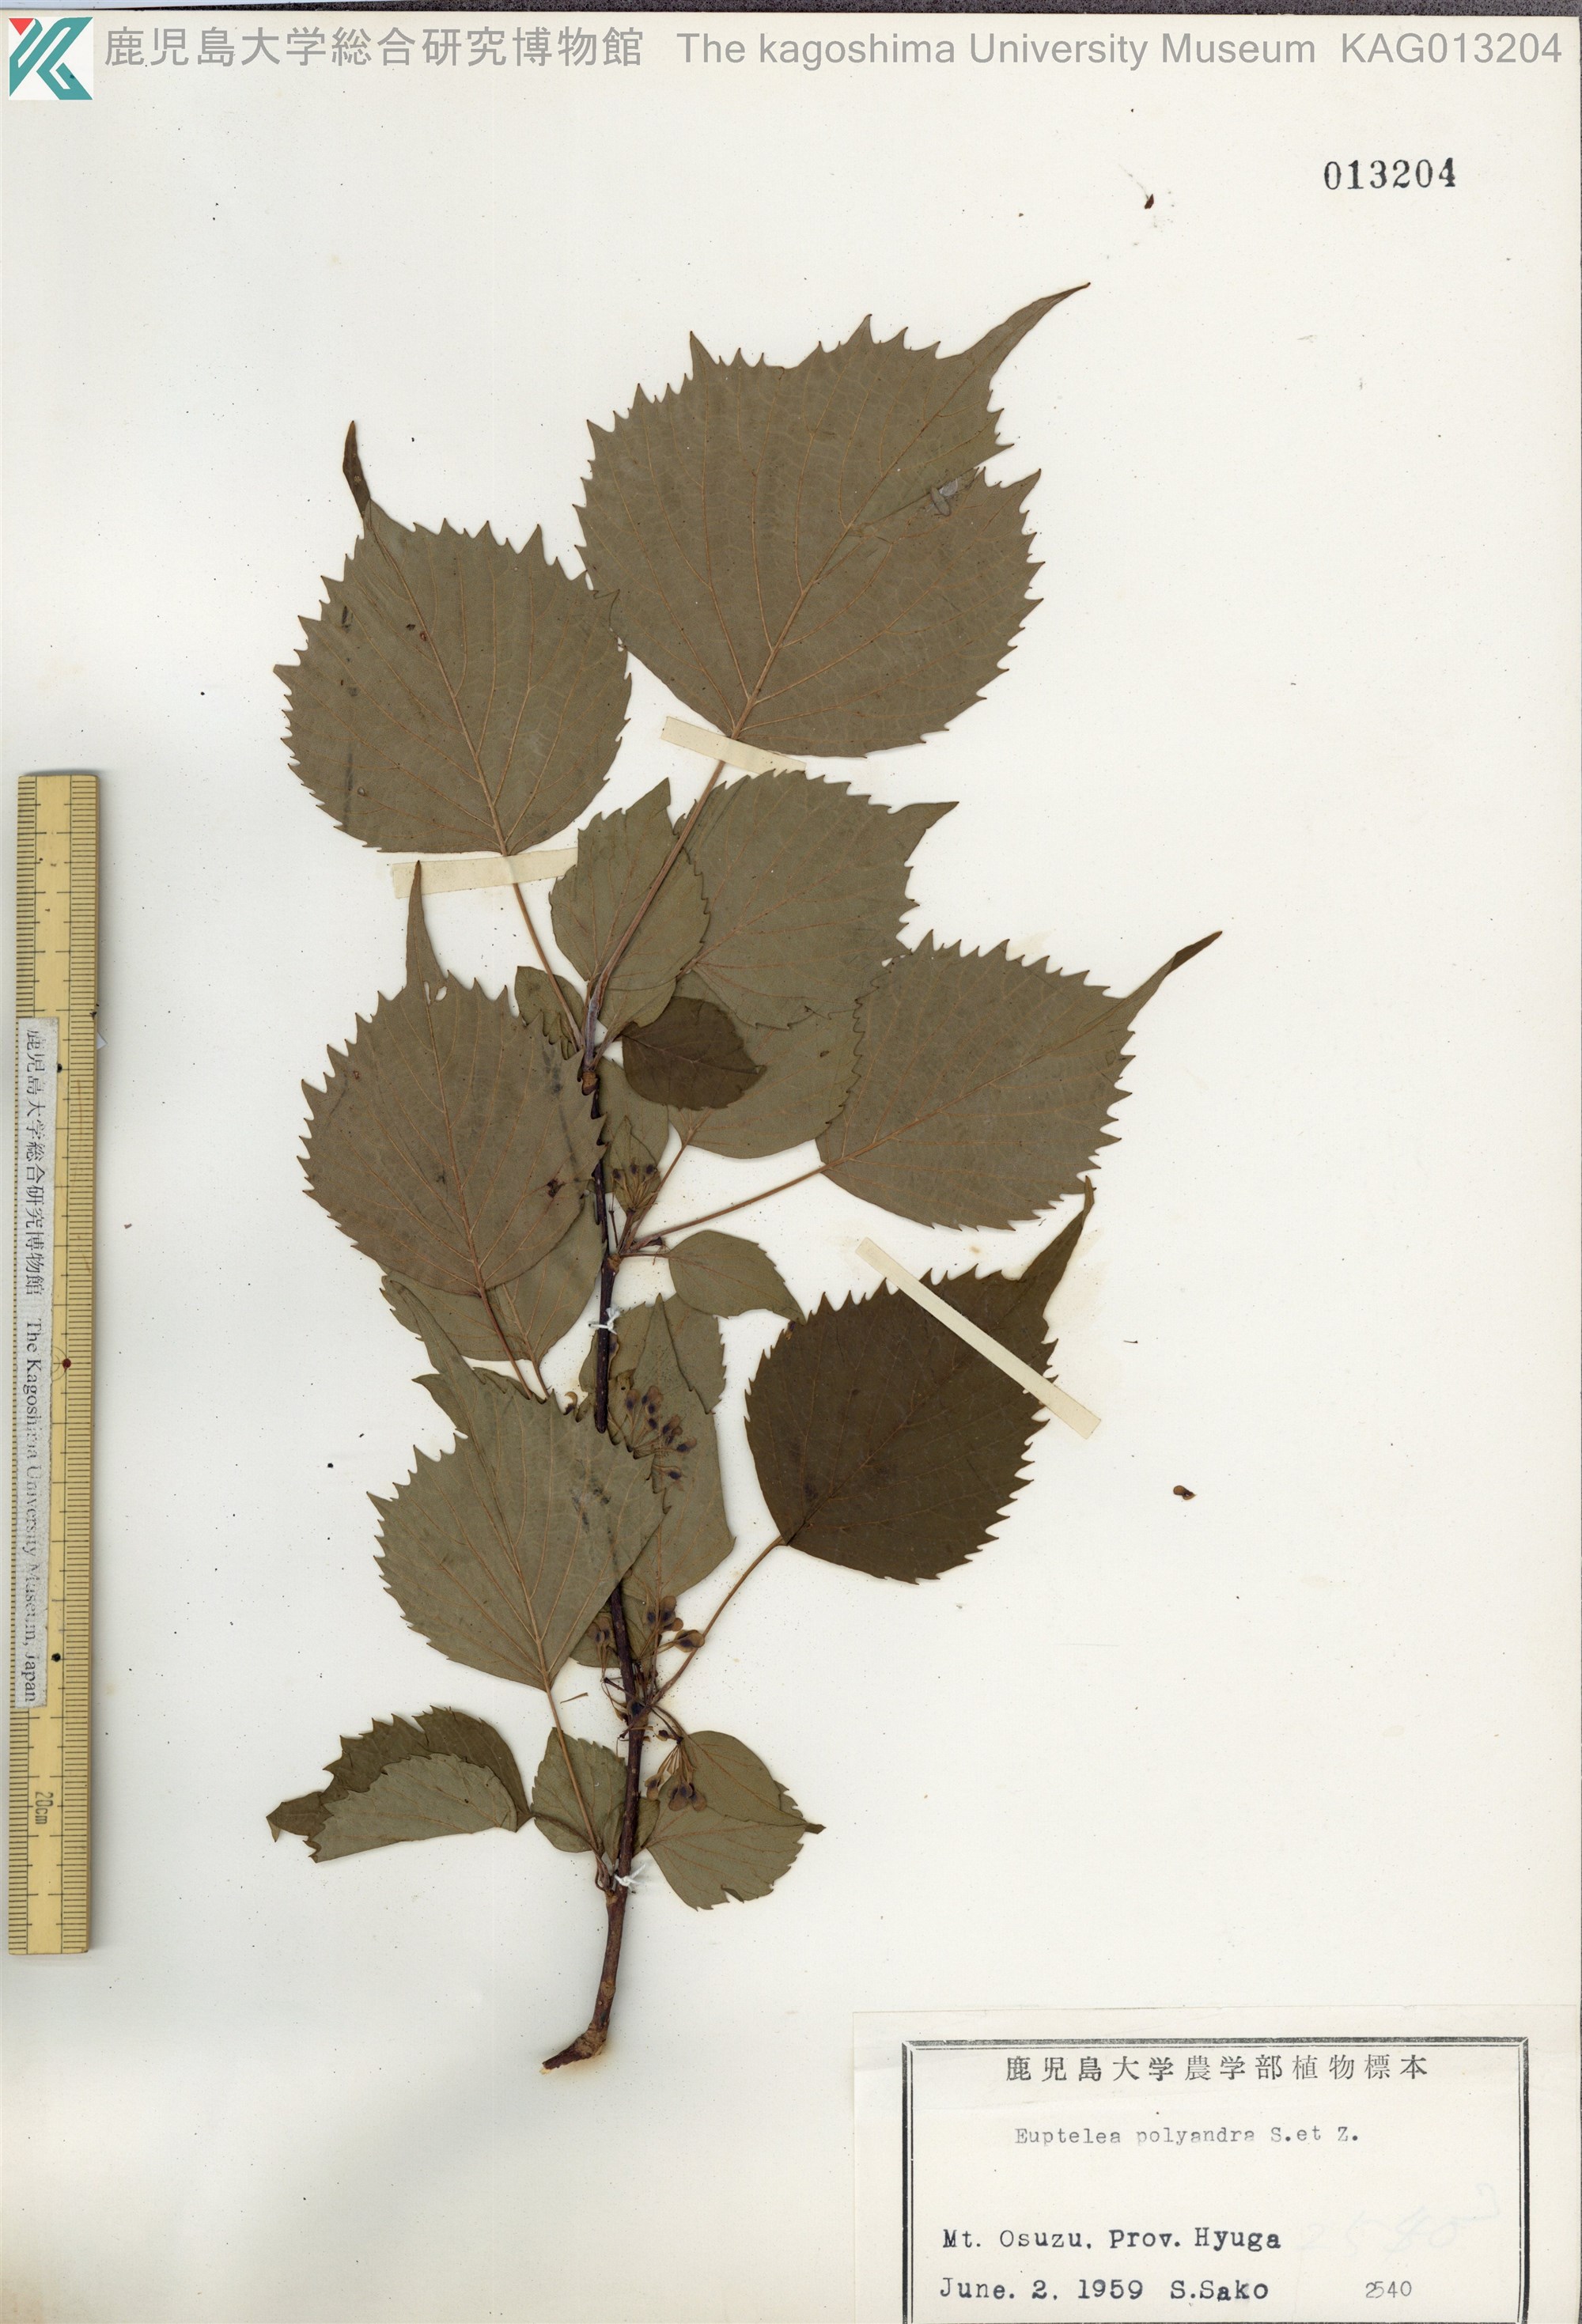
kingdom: Plantae
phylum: Tracheophyta
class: Magnoliopsida
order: Ranunculales
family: Eupteleaceae
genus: Euptelea
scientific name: Euptelea polyandra
